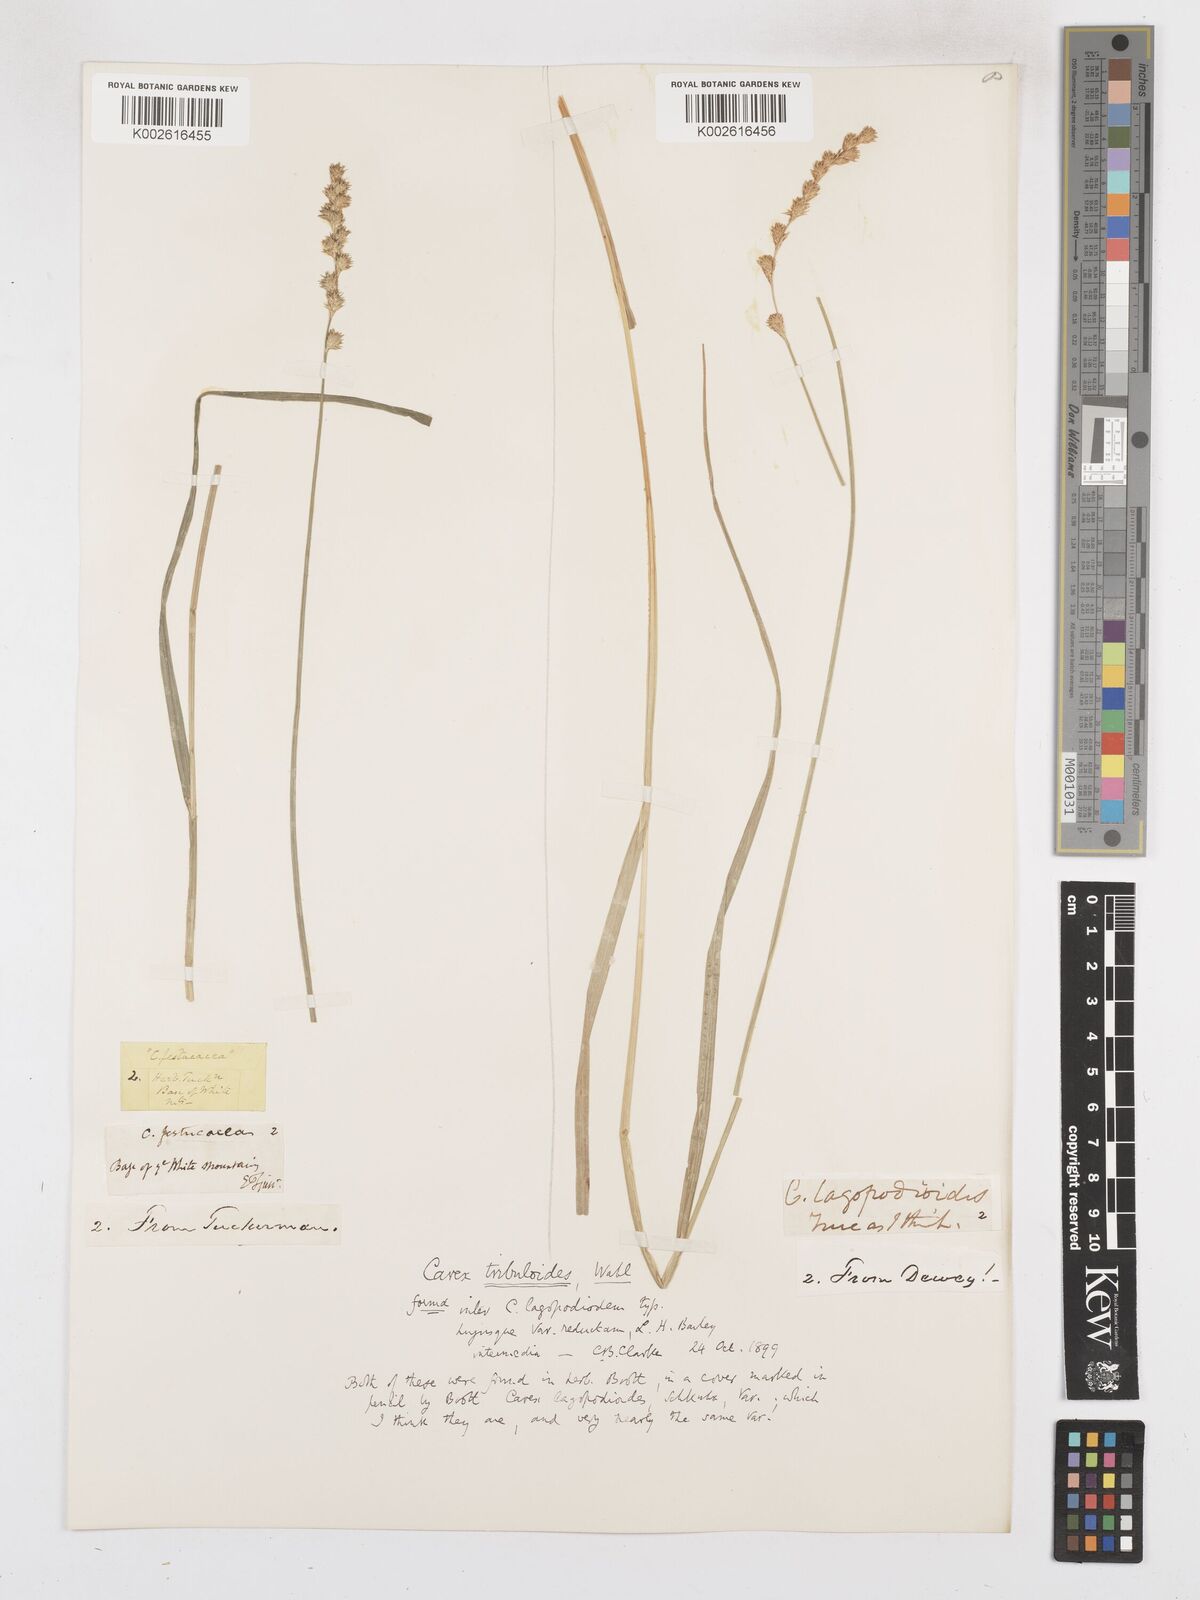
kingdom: Plantae
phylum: Tracheophyta
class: Liliopsida
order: Poales
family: Cyperaceae
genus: Carex
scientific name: Carex tribuloides
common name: Blunt broom sedge
